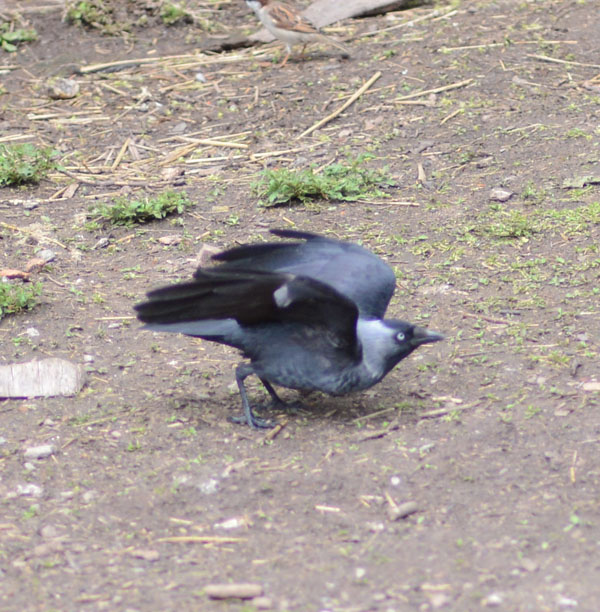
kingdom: Animalia
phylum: Chordata
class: Aves
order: Passeriformes
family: Corvidae
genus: Coloeus
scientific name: Coloeus monedula
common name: Western jackdaw
